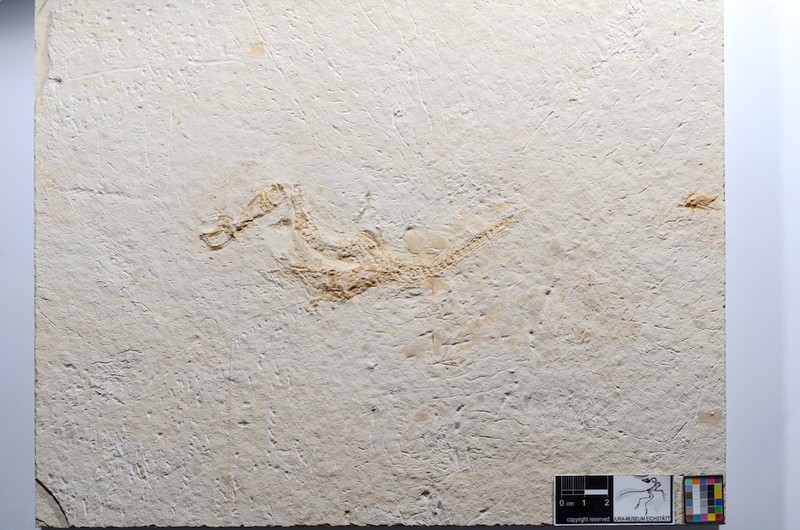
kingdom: Animalia
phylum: Chordata
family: Ascalaboidae
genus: Tharsis
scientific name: Tharsis dubius
